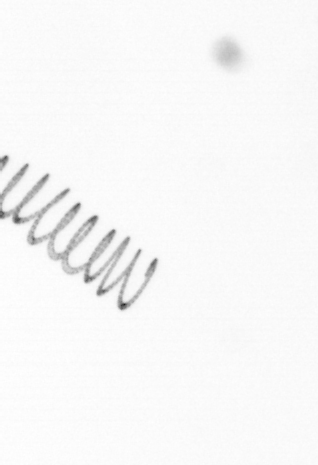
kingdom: Chromista
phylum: Ochrophyta
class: Bacillariophyceae
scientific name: Bacillariophyceae
